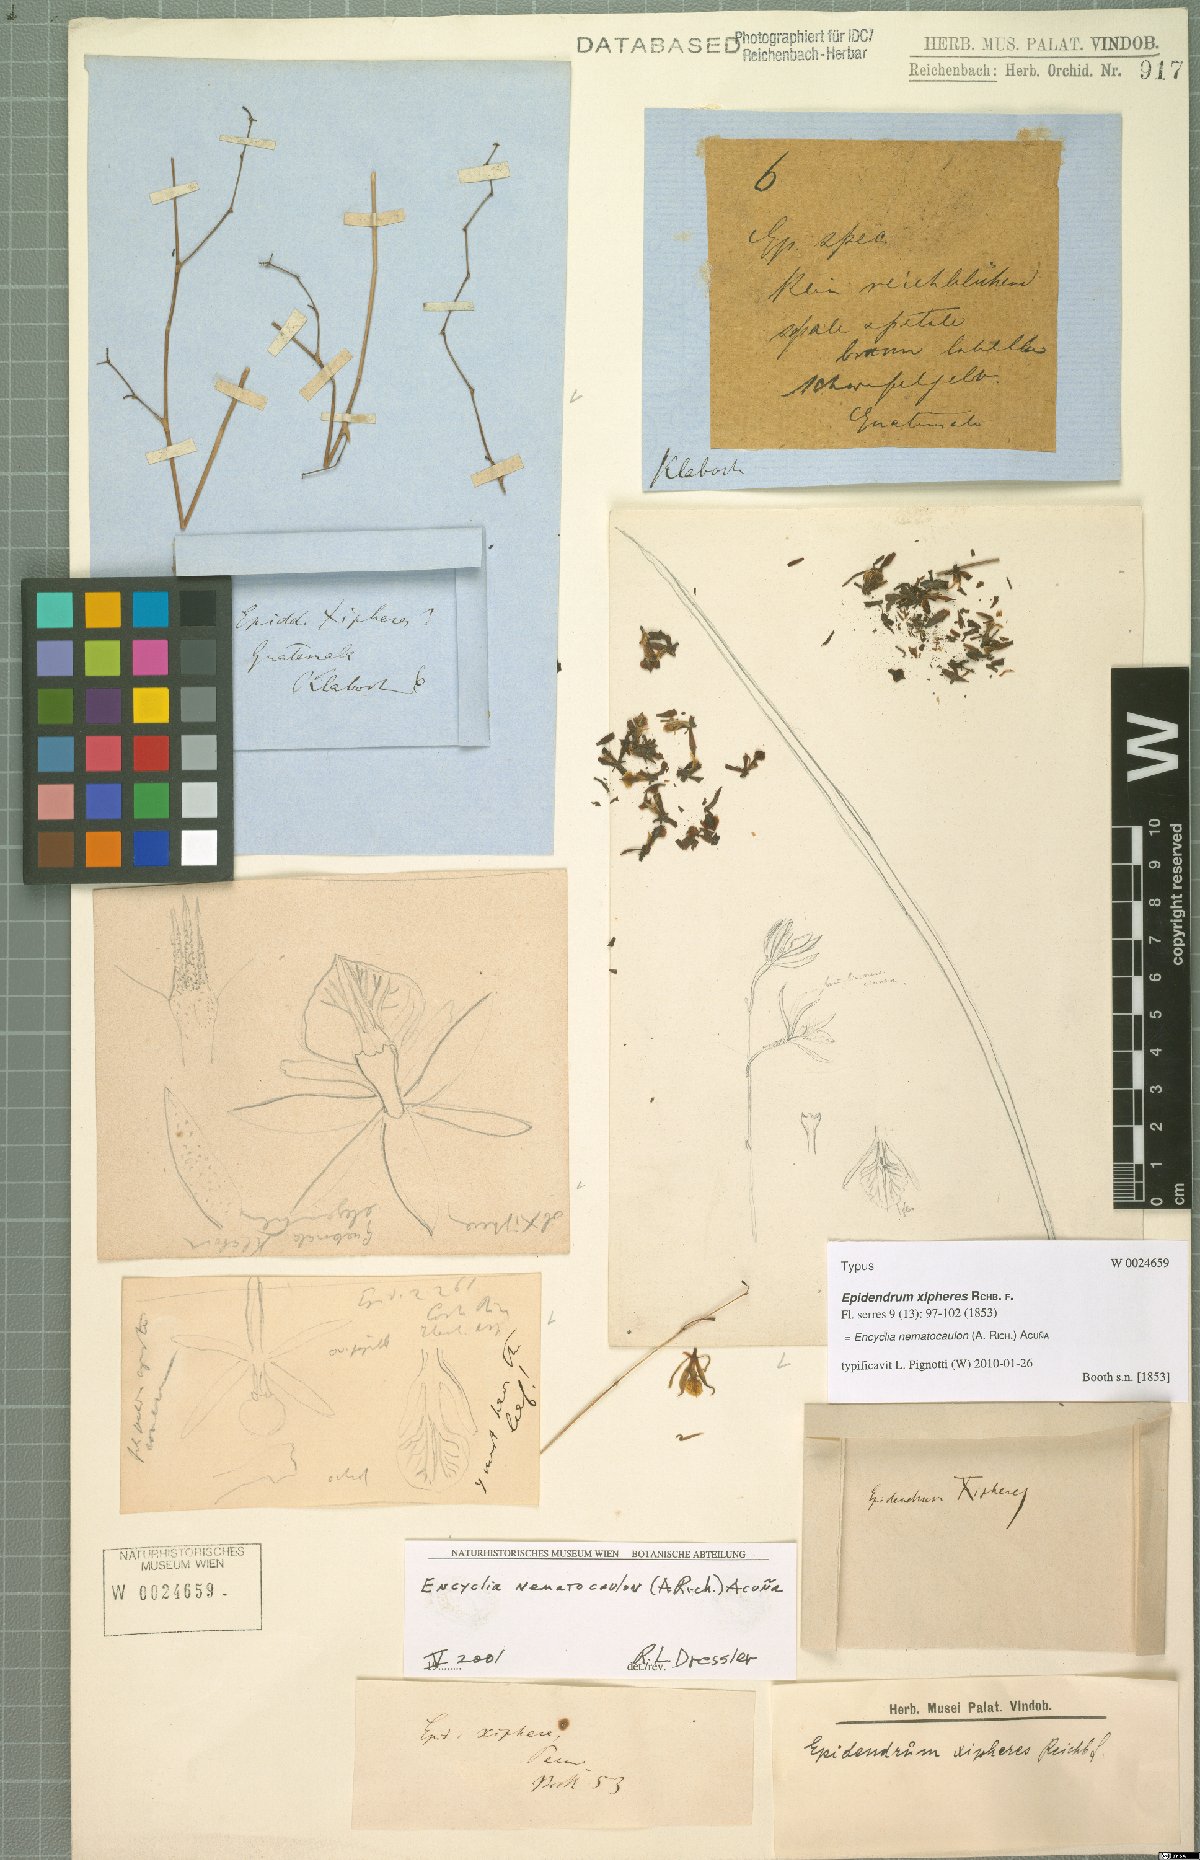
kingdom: Plantae
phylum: Tracheophyta
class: Liliopsida
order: Asparagales
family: Orchidaceae
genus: Encyclia
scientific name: Encyclia nematocaulon
